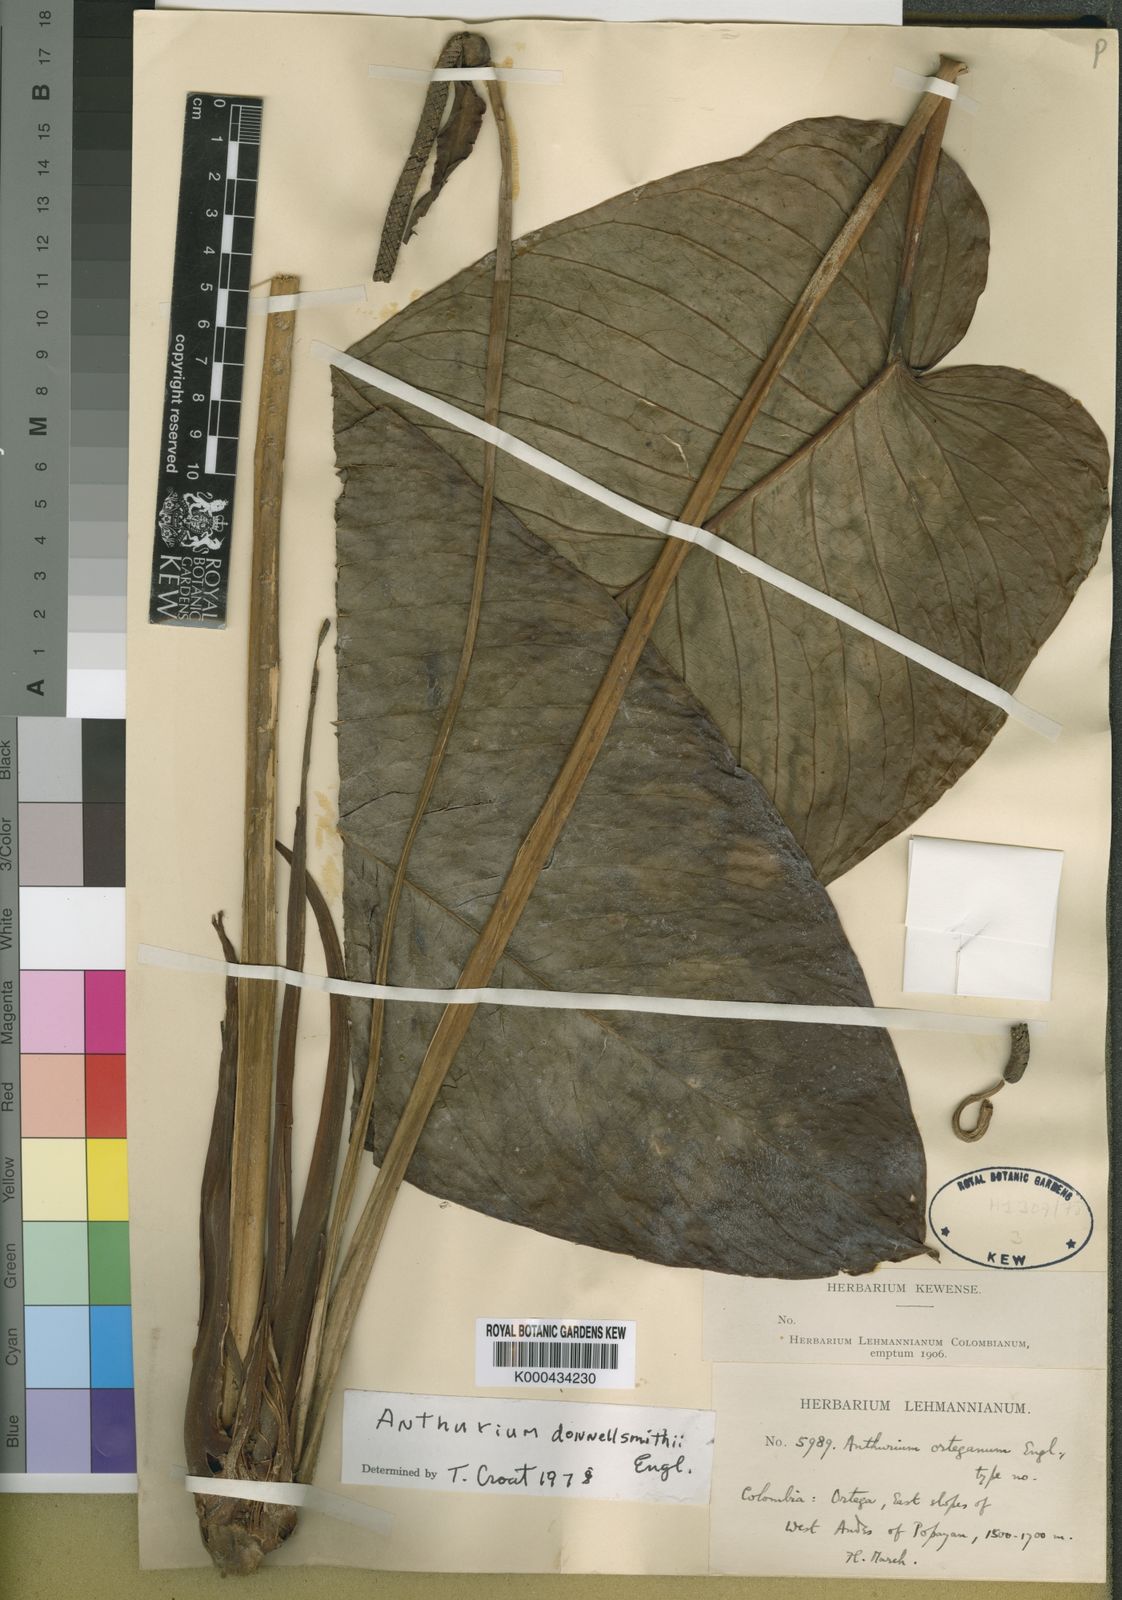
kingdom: Plantae
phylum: Tracheophyta
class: Liliopsida
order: Alismatales
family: Araceae
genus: Anthurium
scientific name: Anthurium talamancae
